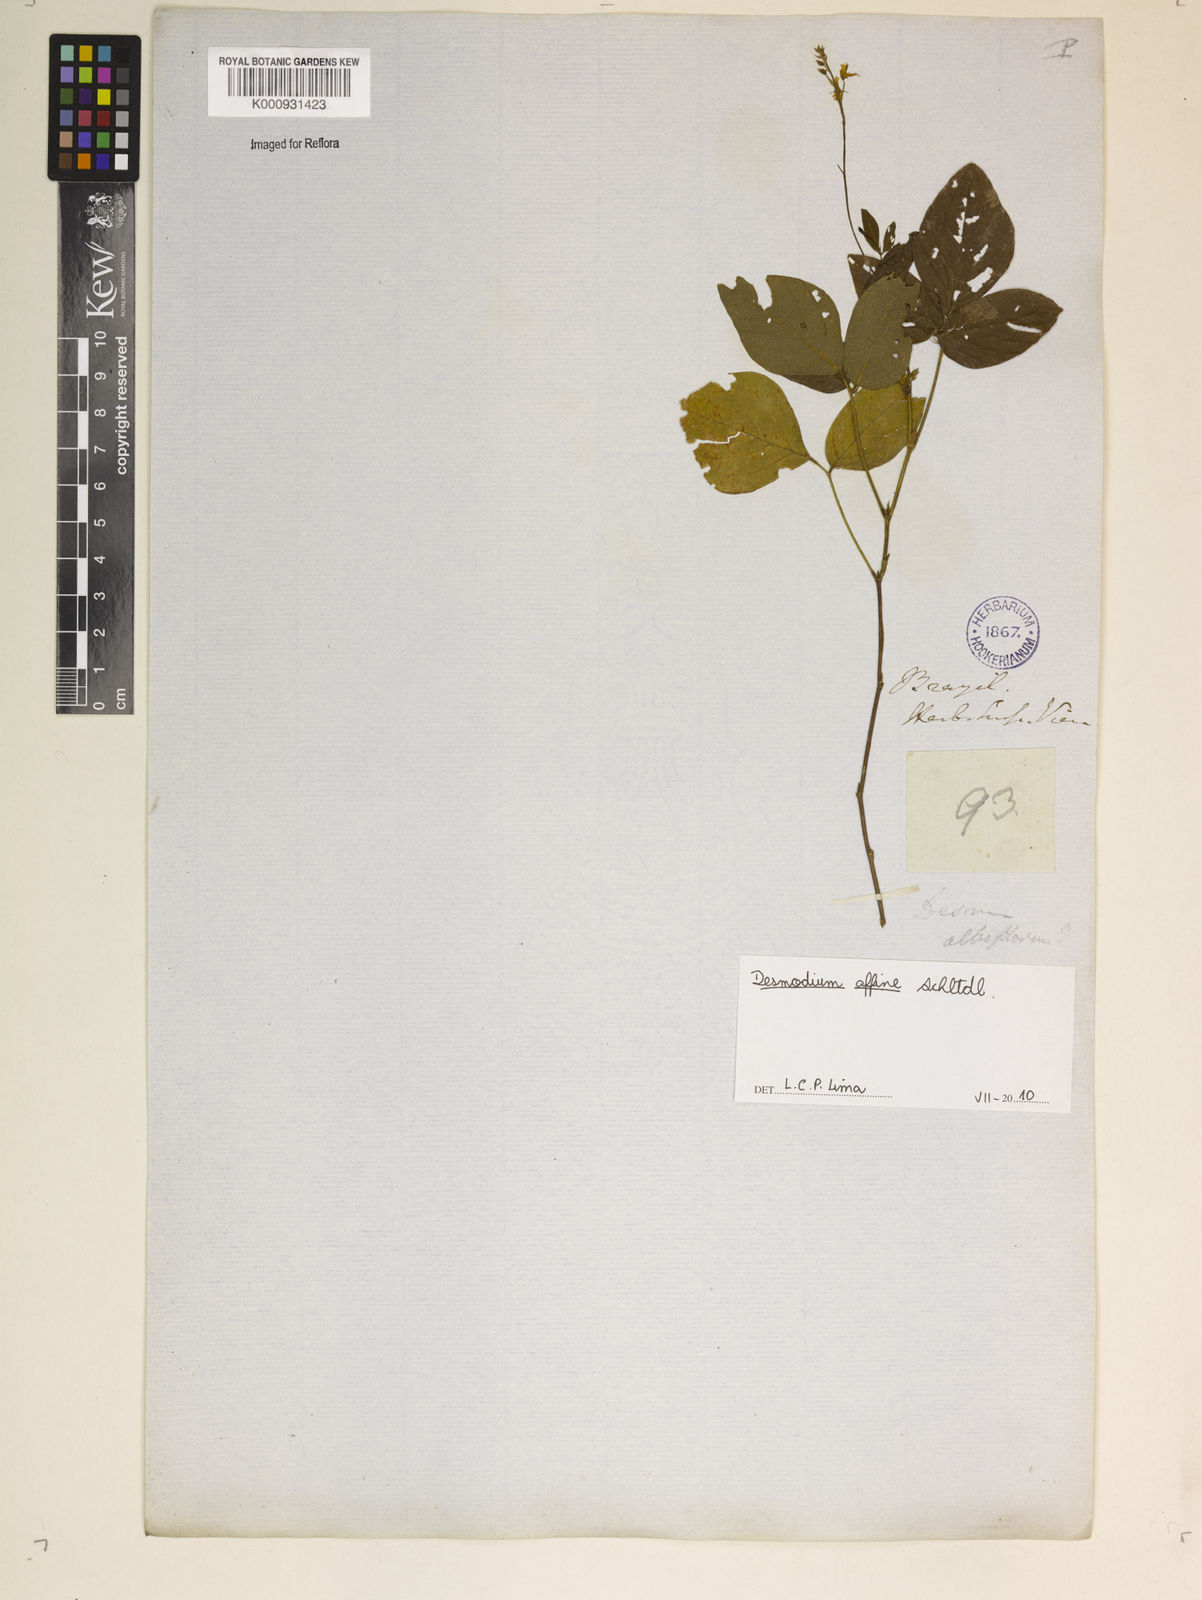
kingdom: Plantae
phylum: Tracheophyta
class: Magnoliopsida
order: Fabales
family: Fabaceae
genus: Desmodium
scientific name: Desmodium affine
